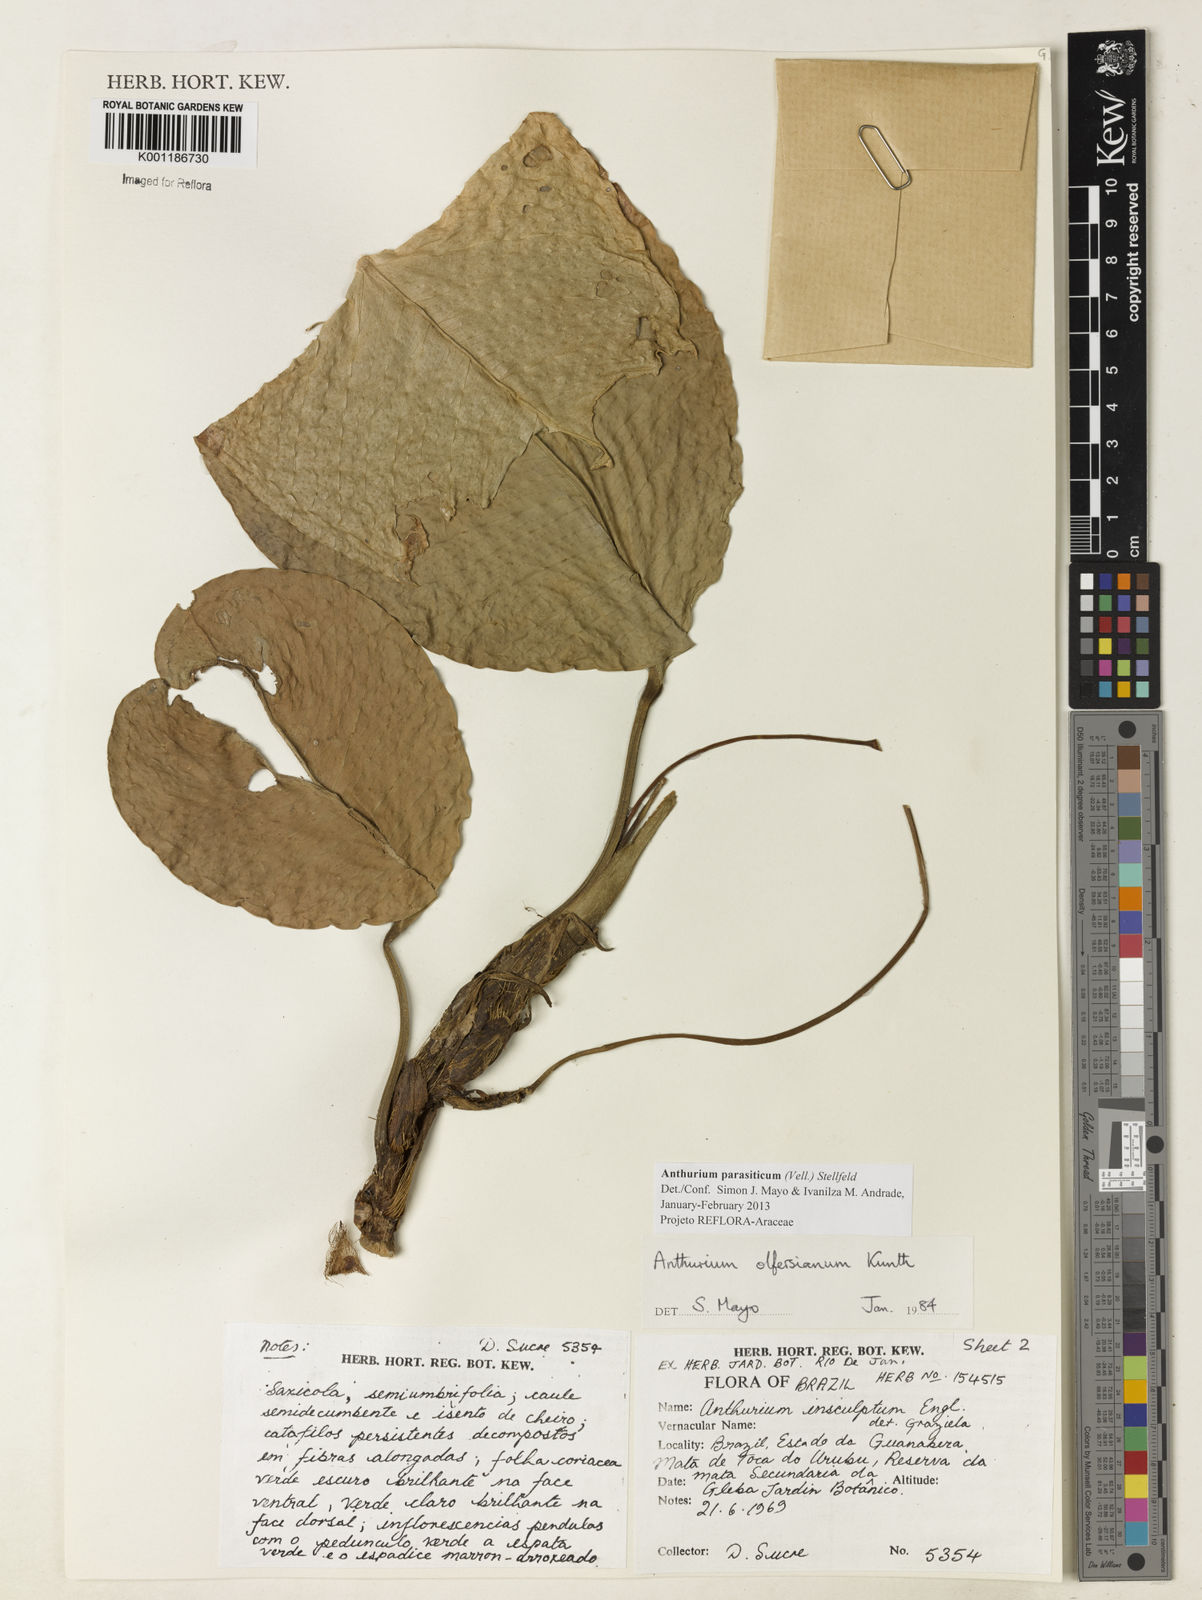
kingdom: Plantae
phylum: Tracheophyta
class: Liliopsida
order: Alismatales
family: Araceae
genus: Anthurium
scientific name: Anthurium parasiticum
